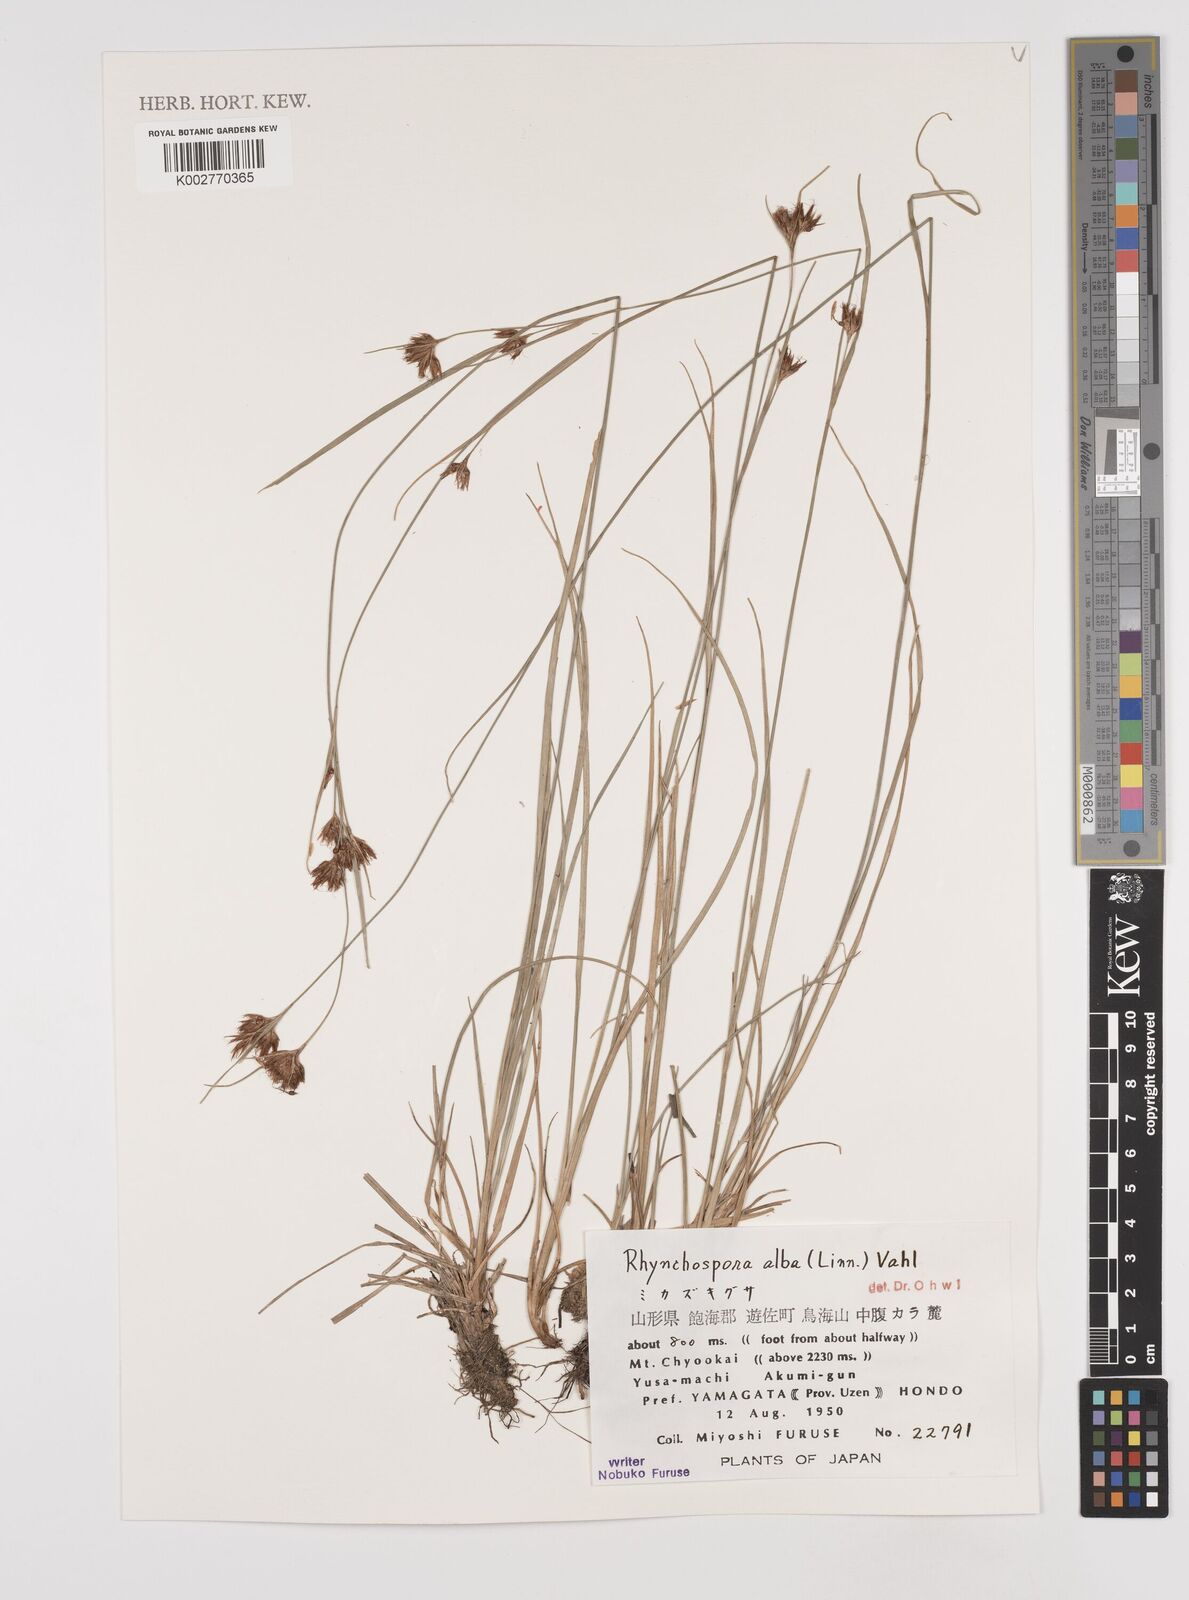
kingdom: Plantae
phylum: Tracheophyta
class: Liliopsida
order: Poales
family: Cyperaceae
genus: Rhynchospora
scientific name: Rhynchospora alba
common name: White beak-sedge
